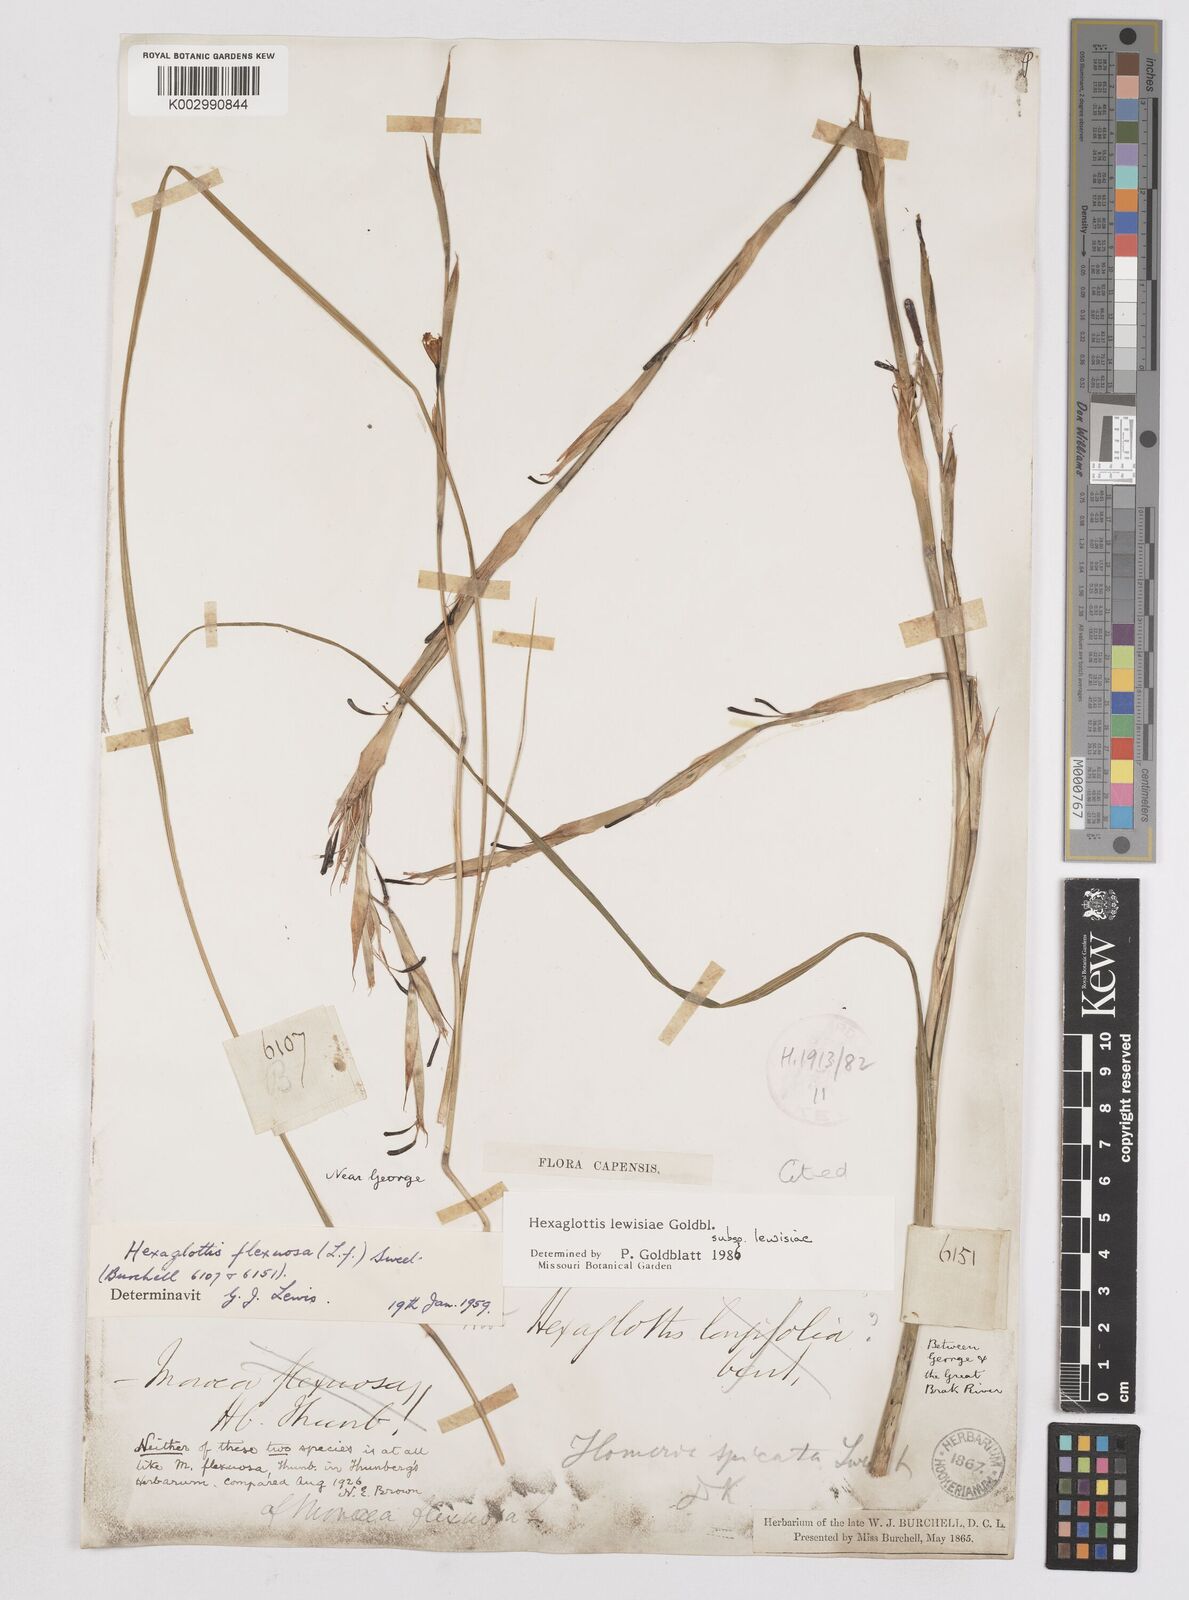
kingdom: Plantae
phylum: Tracheophyta
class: Liliopsida
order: Asparagales
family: Iridaceae
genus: Moraea
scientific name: Moraea lewisiae
